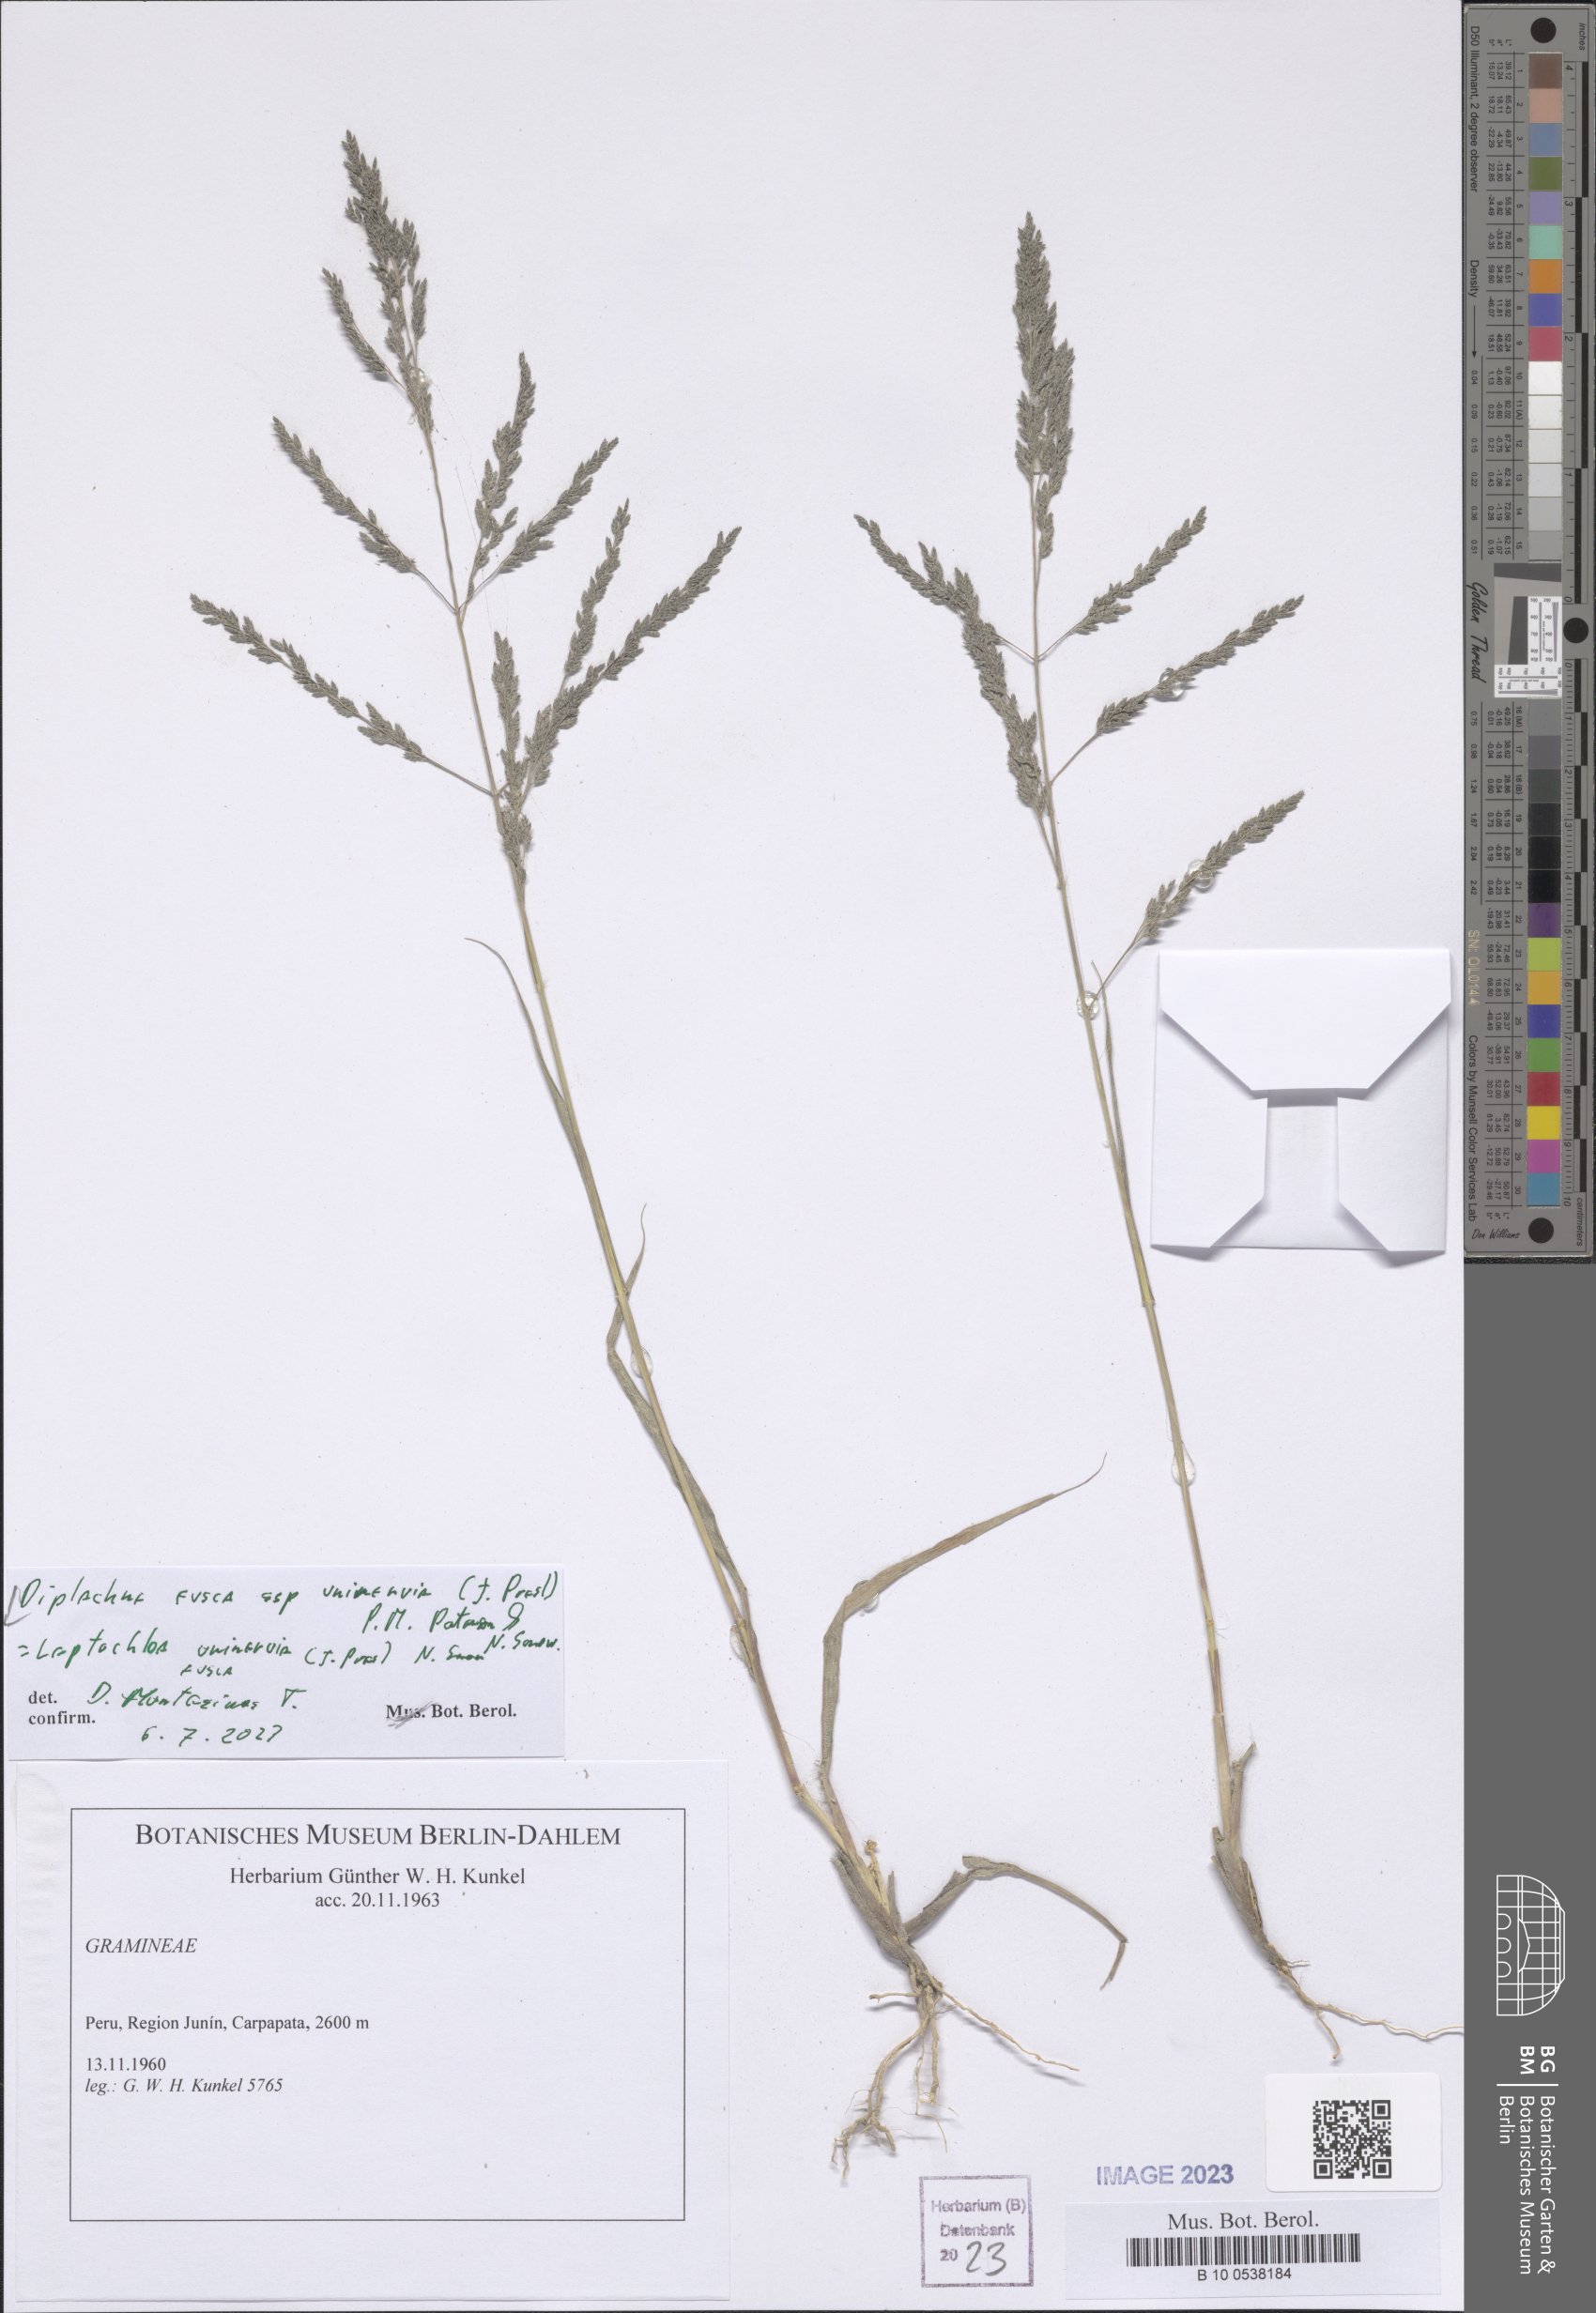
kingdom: Plantae
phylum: Tracheophyta
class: Liliopsida
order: Poales
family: Poaceae
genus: Diplachne
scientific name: Diplachne fusca
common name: Brown beetle grass
